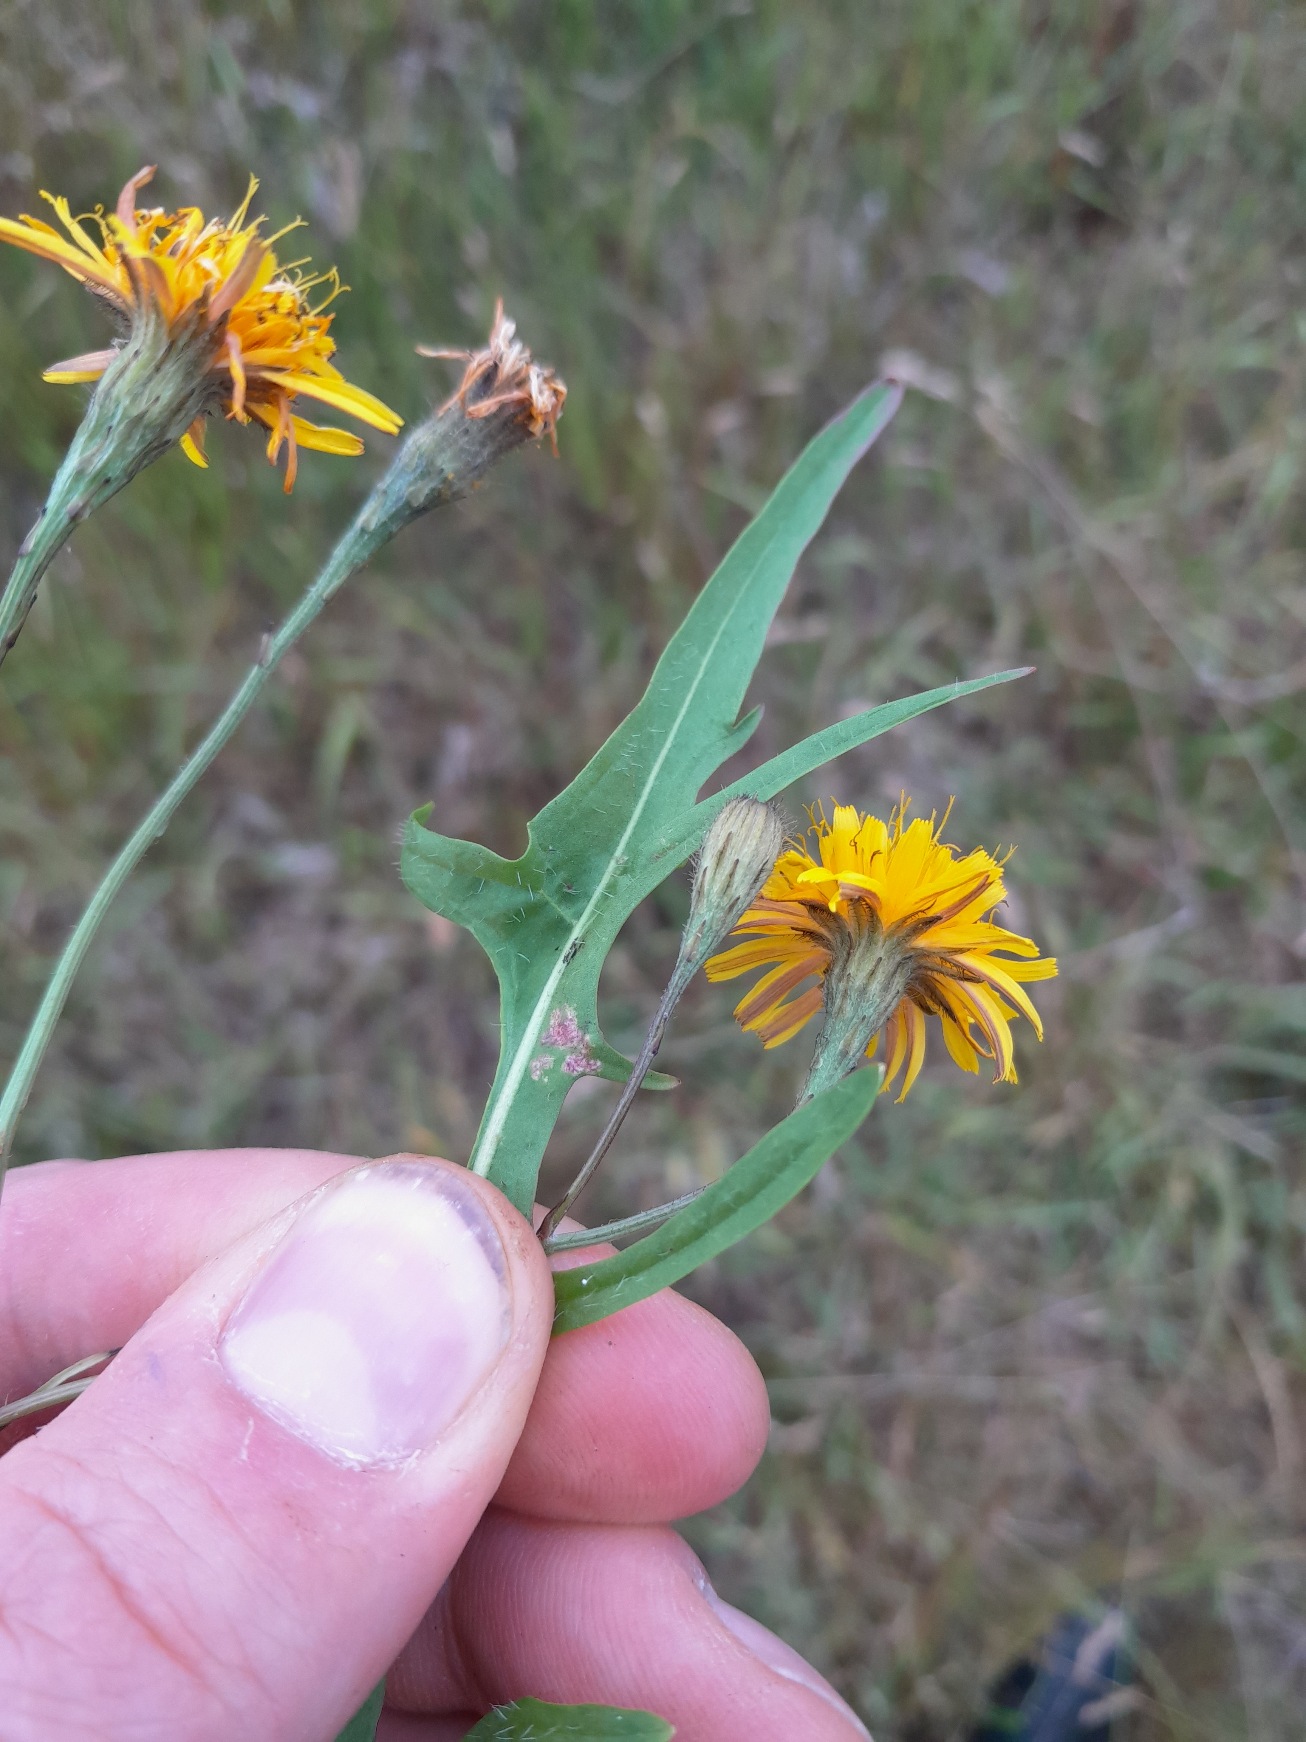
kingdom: Plantae
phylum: Tracheophyta
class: Magnoliopsida
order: Asterales
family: Asteraceae
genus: Scorzoneroides
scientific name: Scorzoneroides autumnalis
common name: Høst-borst
